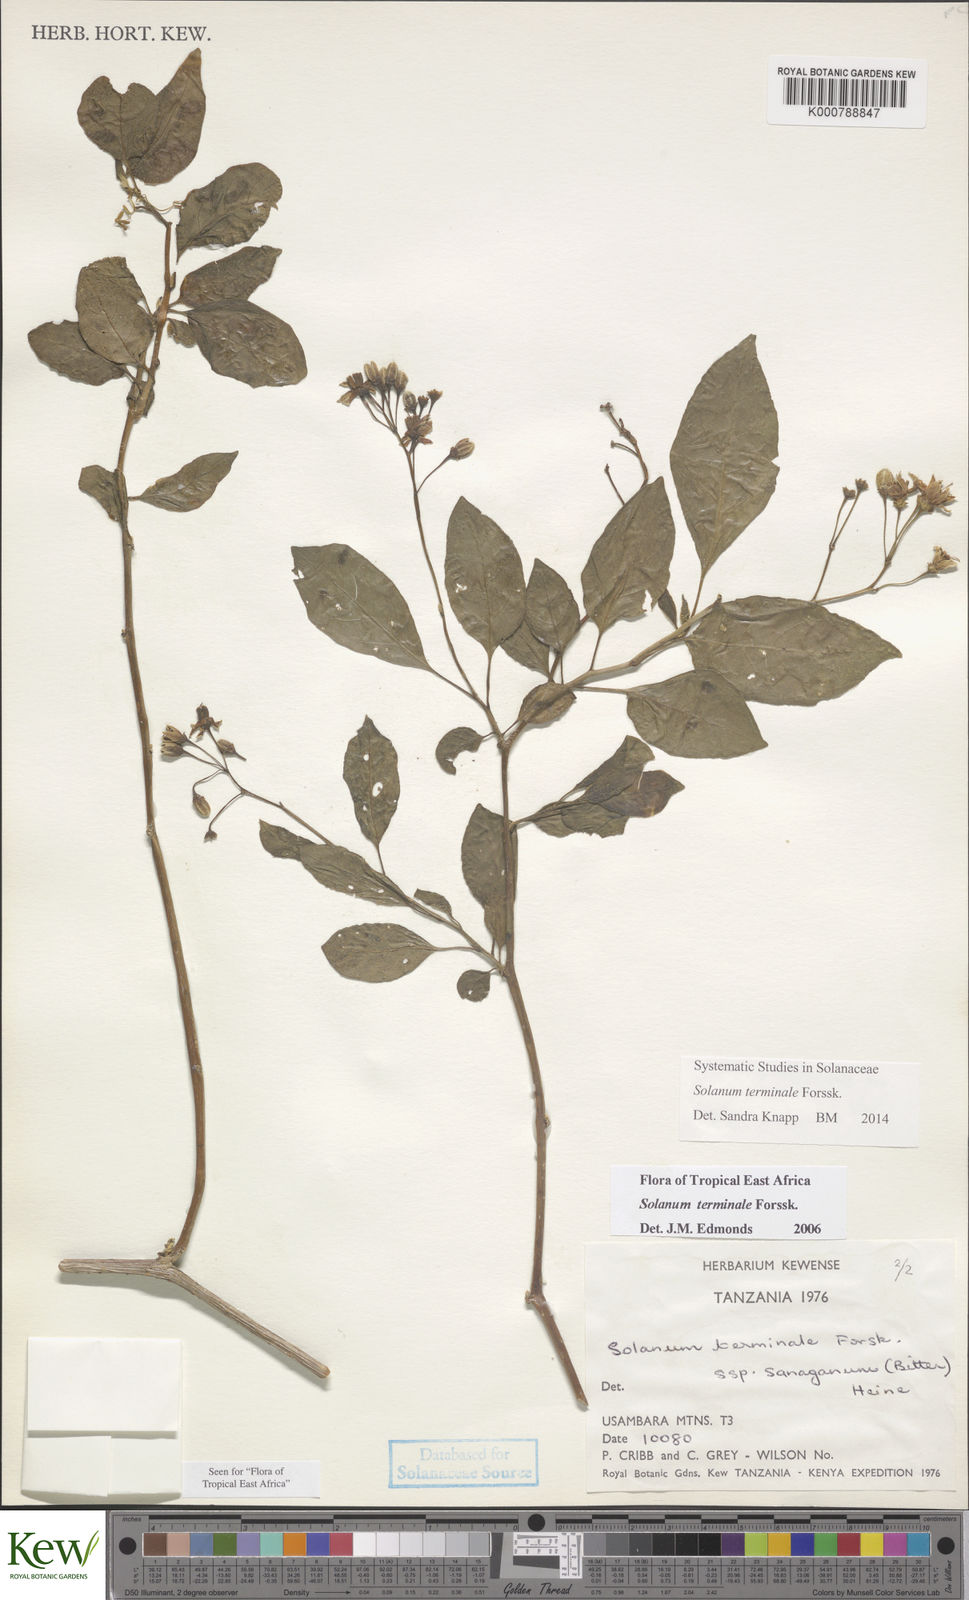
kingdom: Plantae
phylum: Tracheophyta
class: Magnoliopsida
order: Solanales
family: Solanaceae
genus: Solanum
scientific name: Solanum terminale
